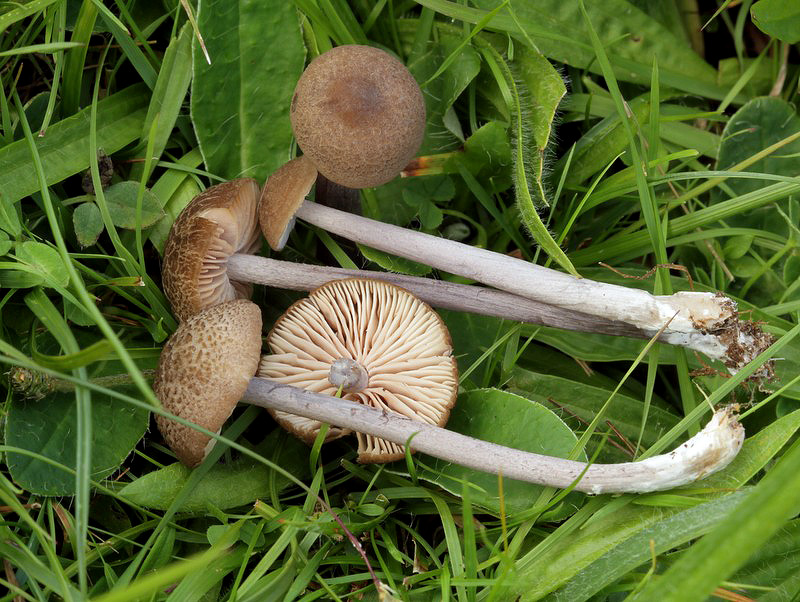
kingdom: Fungi
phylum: Basidiomycota
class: Agaricomycetes
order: Agaricales
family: Entolomataceae
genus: Entoloma
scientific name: Entoloma griseocyaneum
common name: gråblå rødblad
